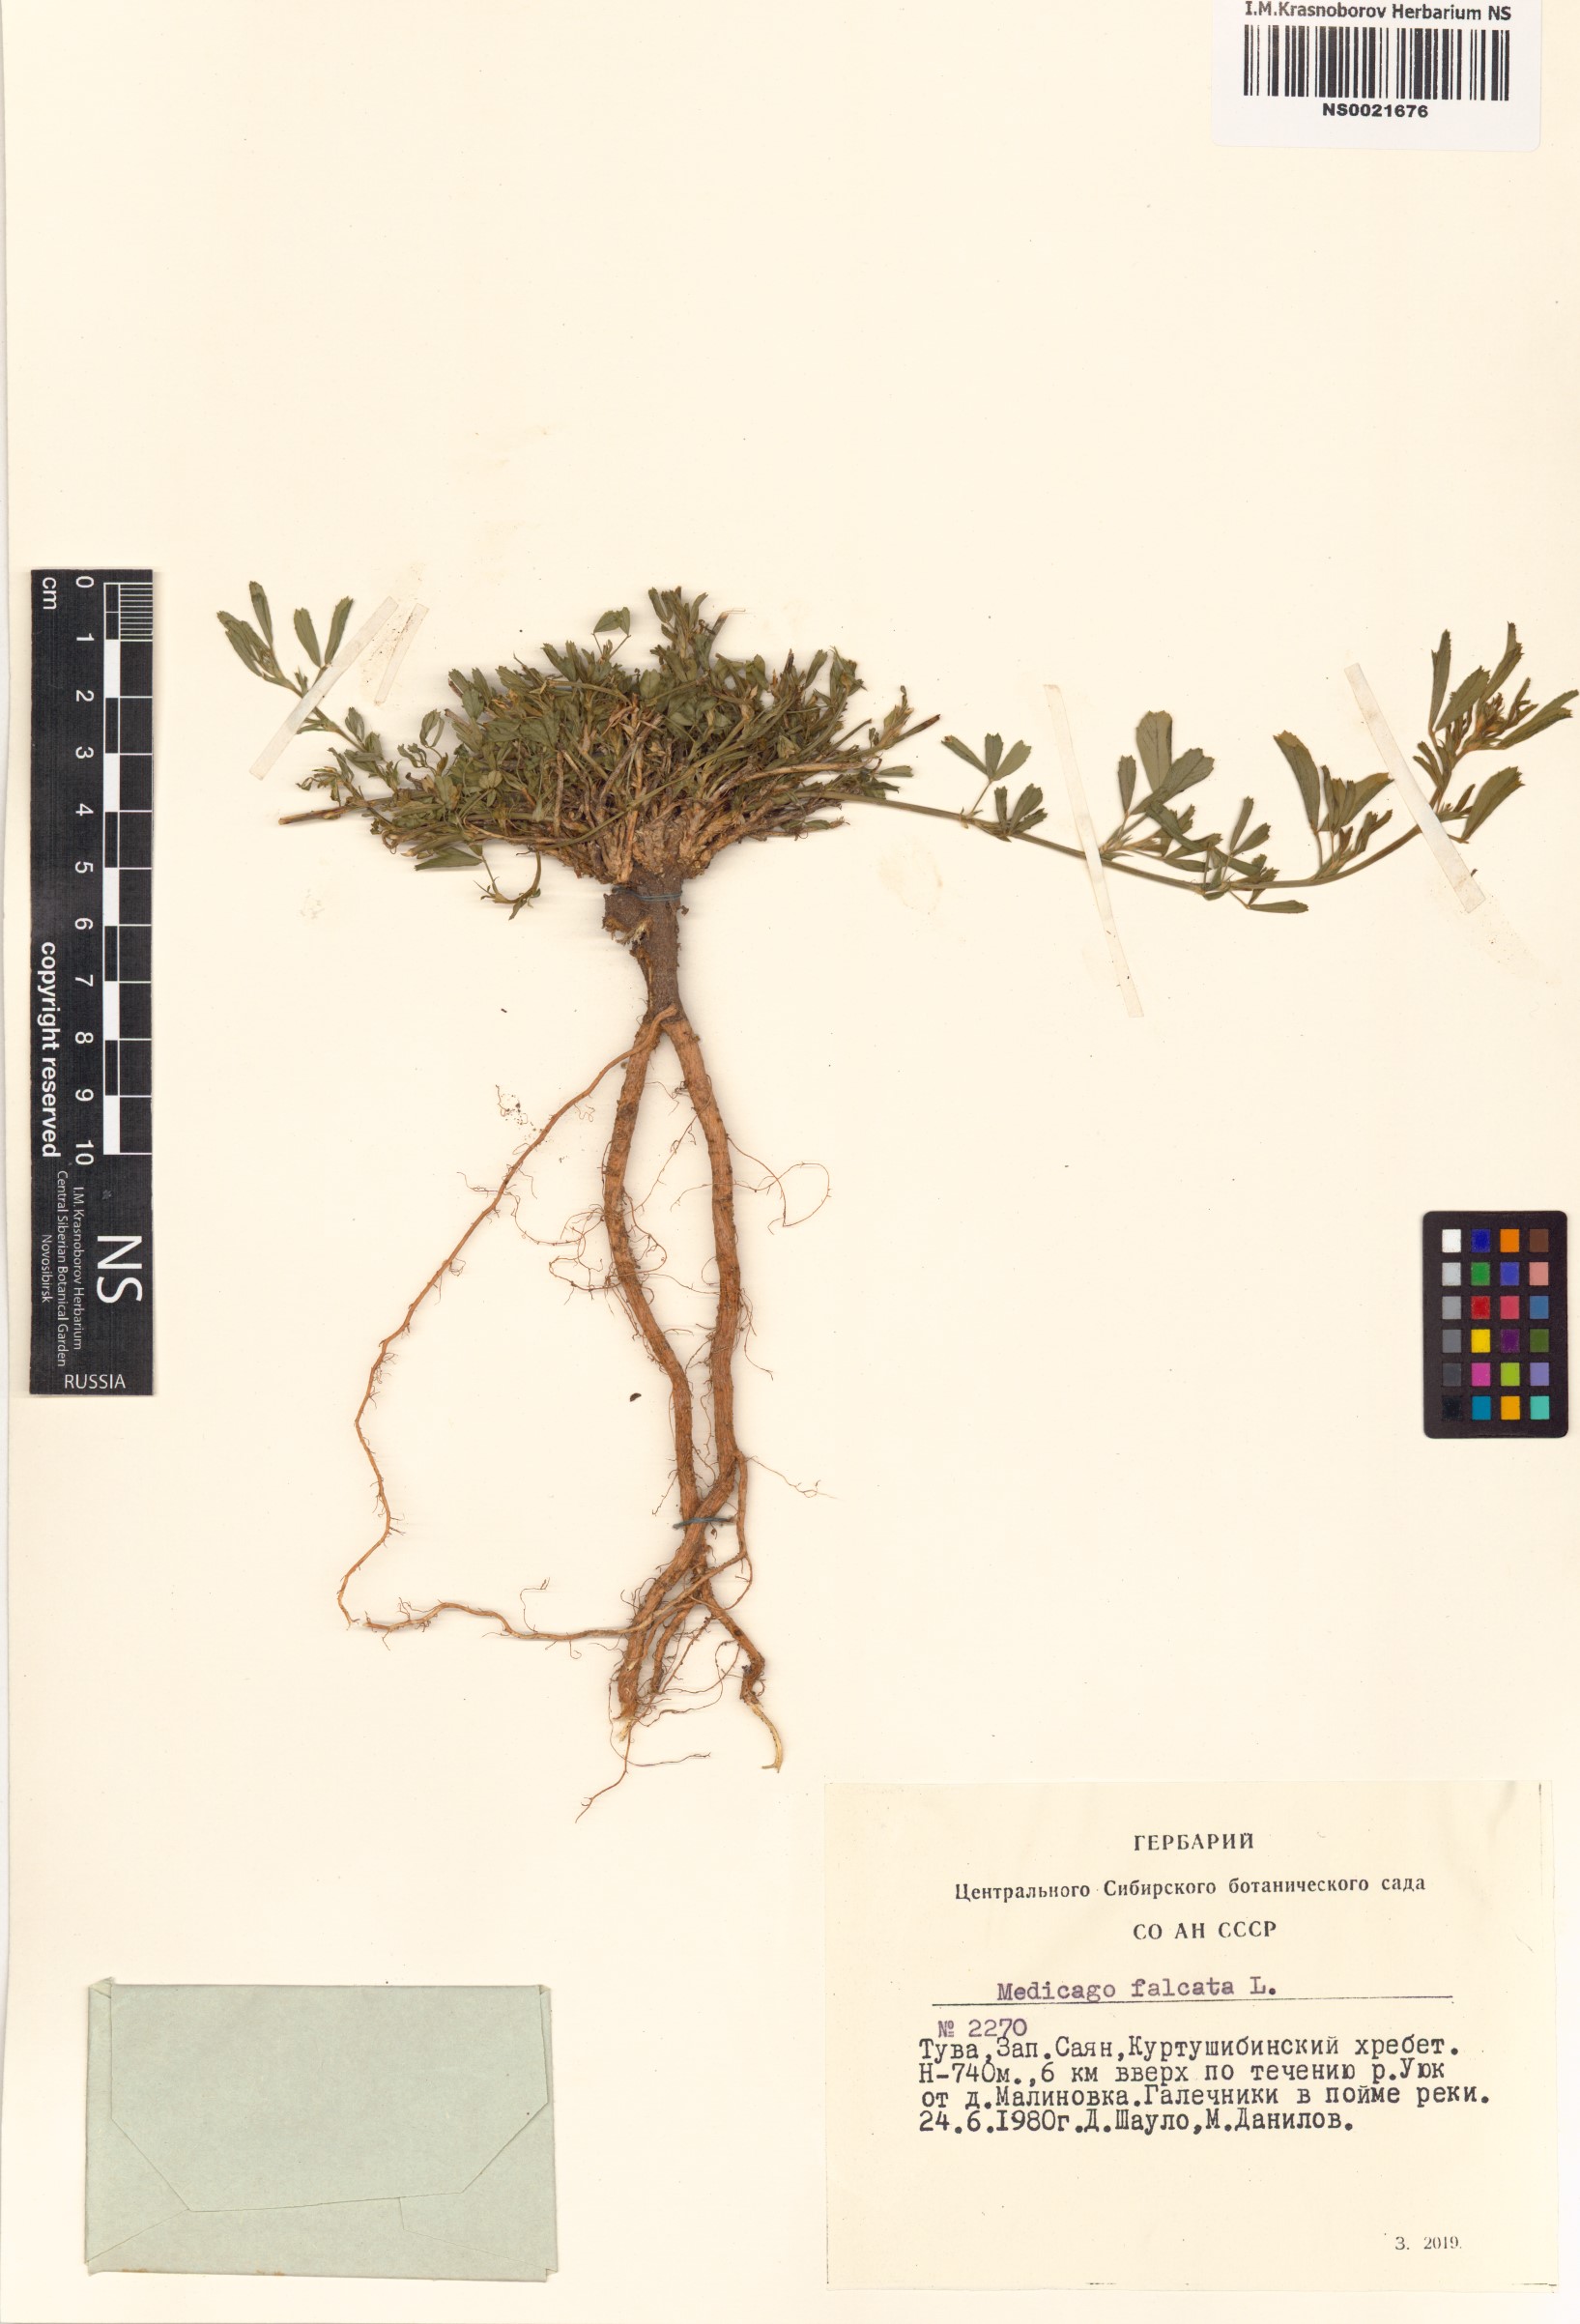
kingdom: Plantae
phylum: Tracheophyta
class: Magnoliopsida
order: Fabales
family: Fabaceae
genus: Medicago
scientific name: Medicago falcata
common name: Sickle medick
